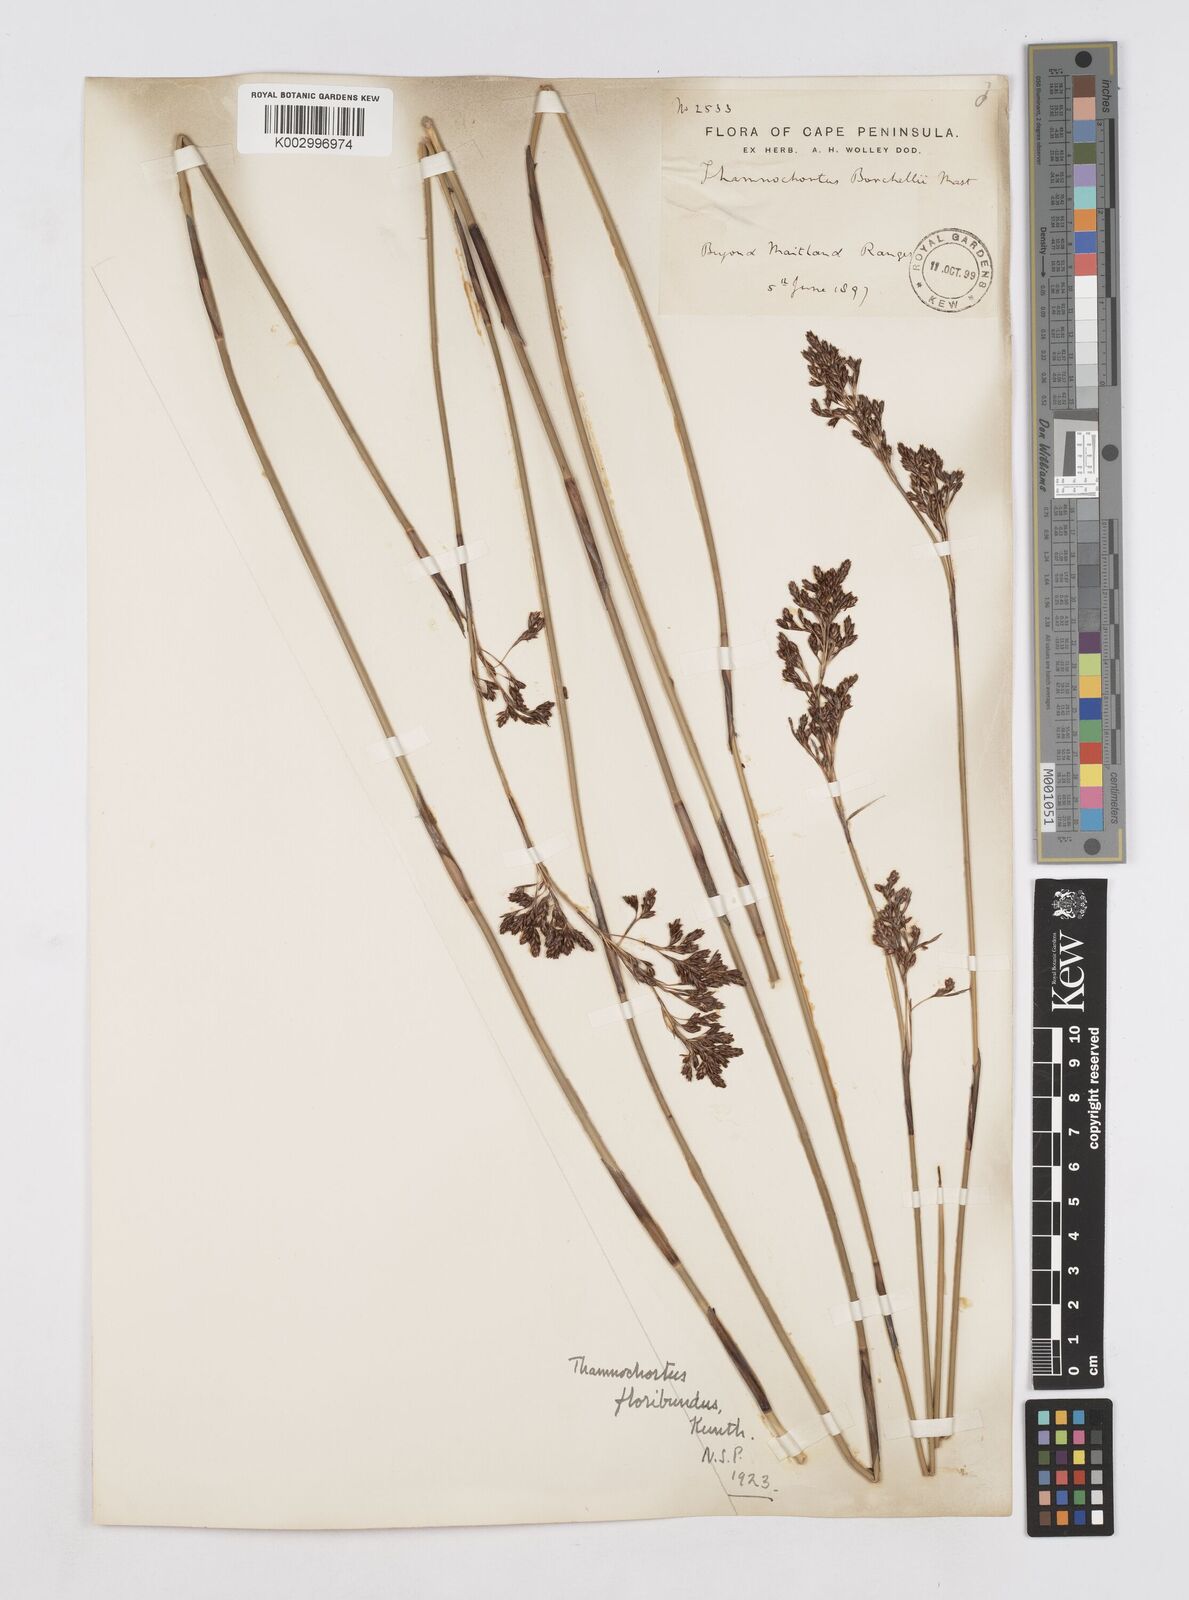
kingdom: Plantae
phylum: Tracheophyta
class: Liliopsida
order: Poales
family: Restionaceae
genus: Thamnochortus
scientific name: Thamnochortus erectus
